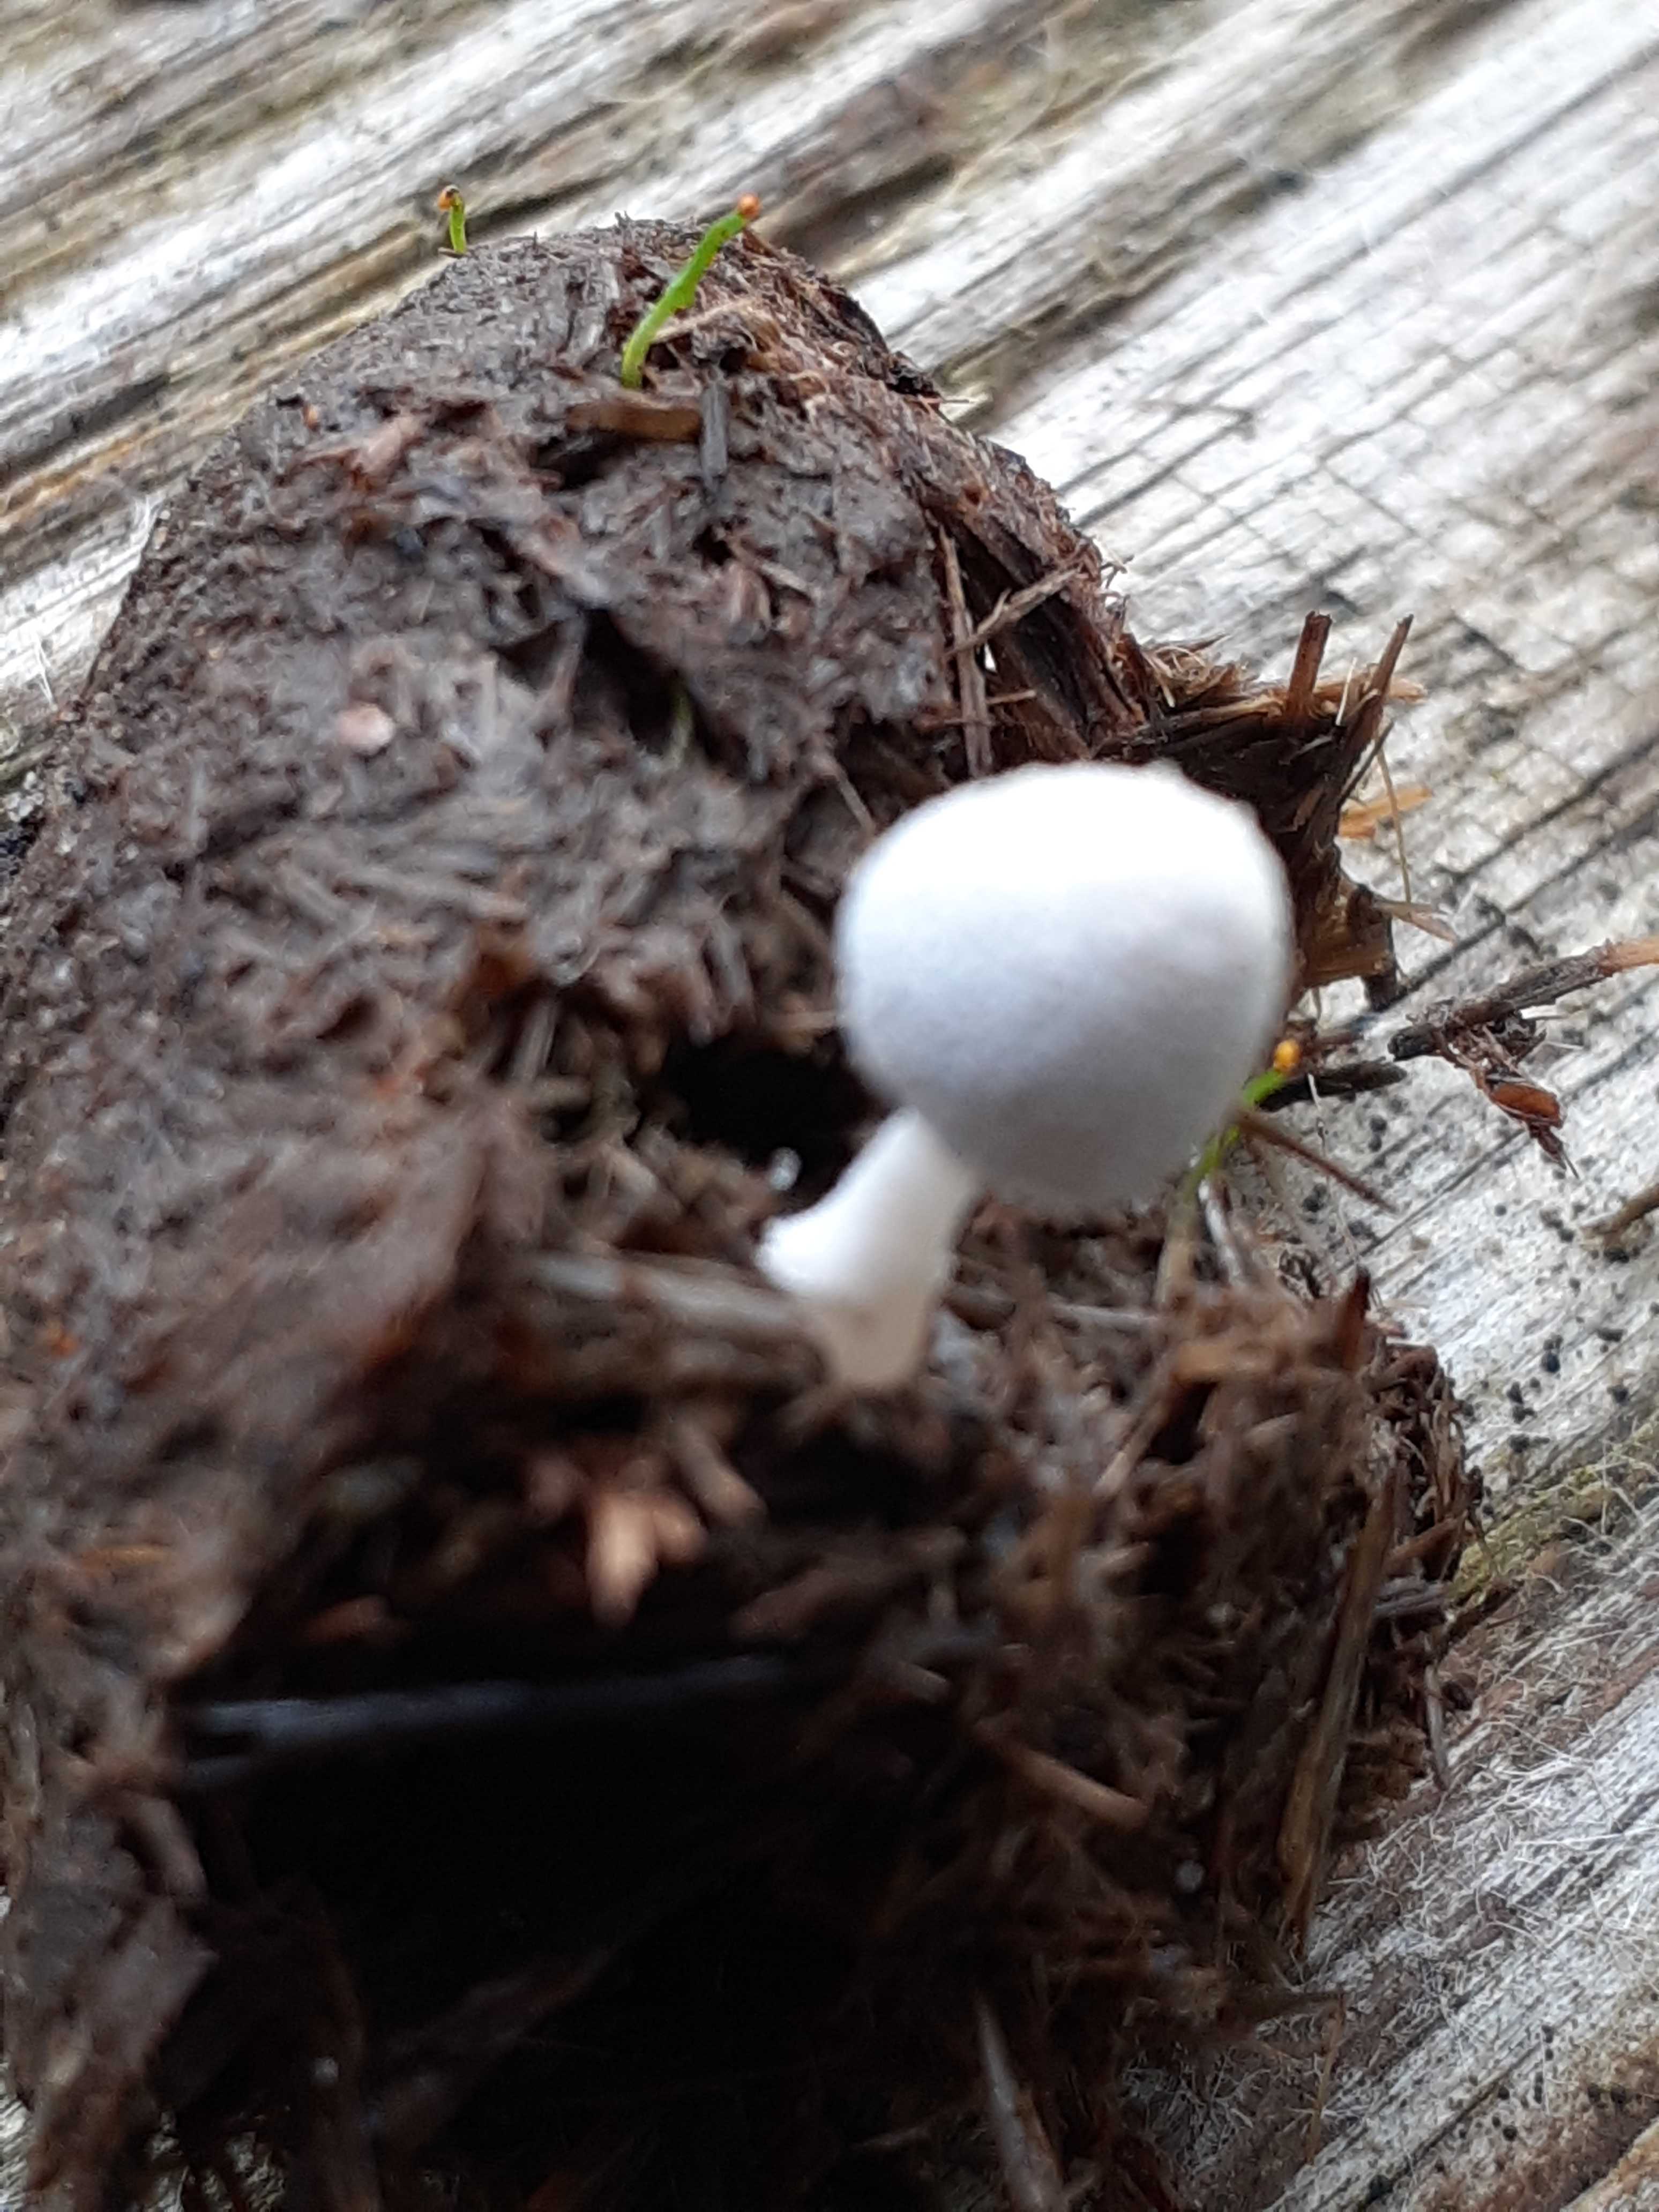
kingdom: Fungi
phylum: Basidiomycota
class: Agaricomycetes
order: Agaricales
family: Psathyrellaceae
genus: Coprinopsis
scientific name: Coprinopsis
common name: blækhat
